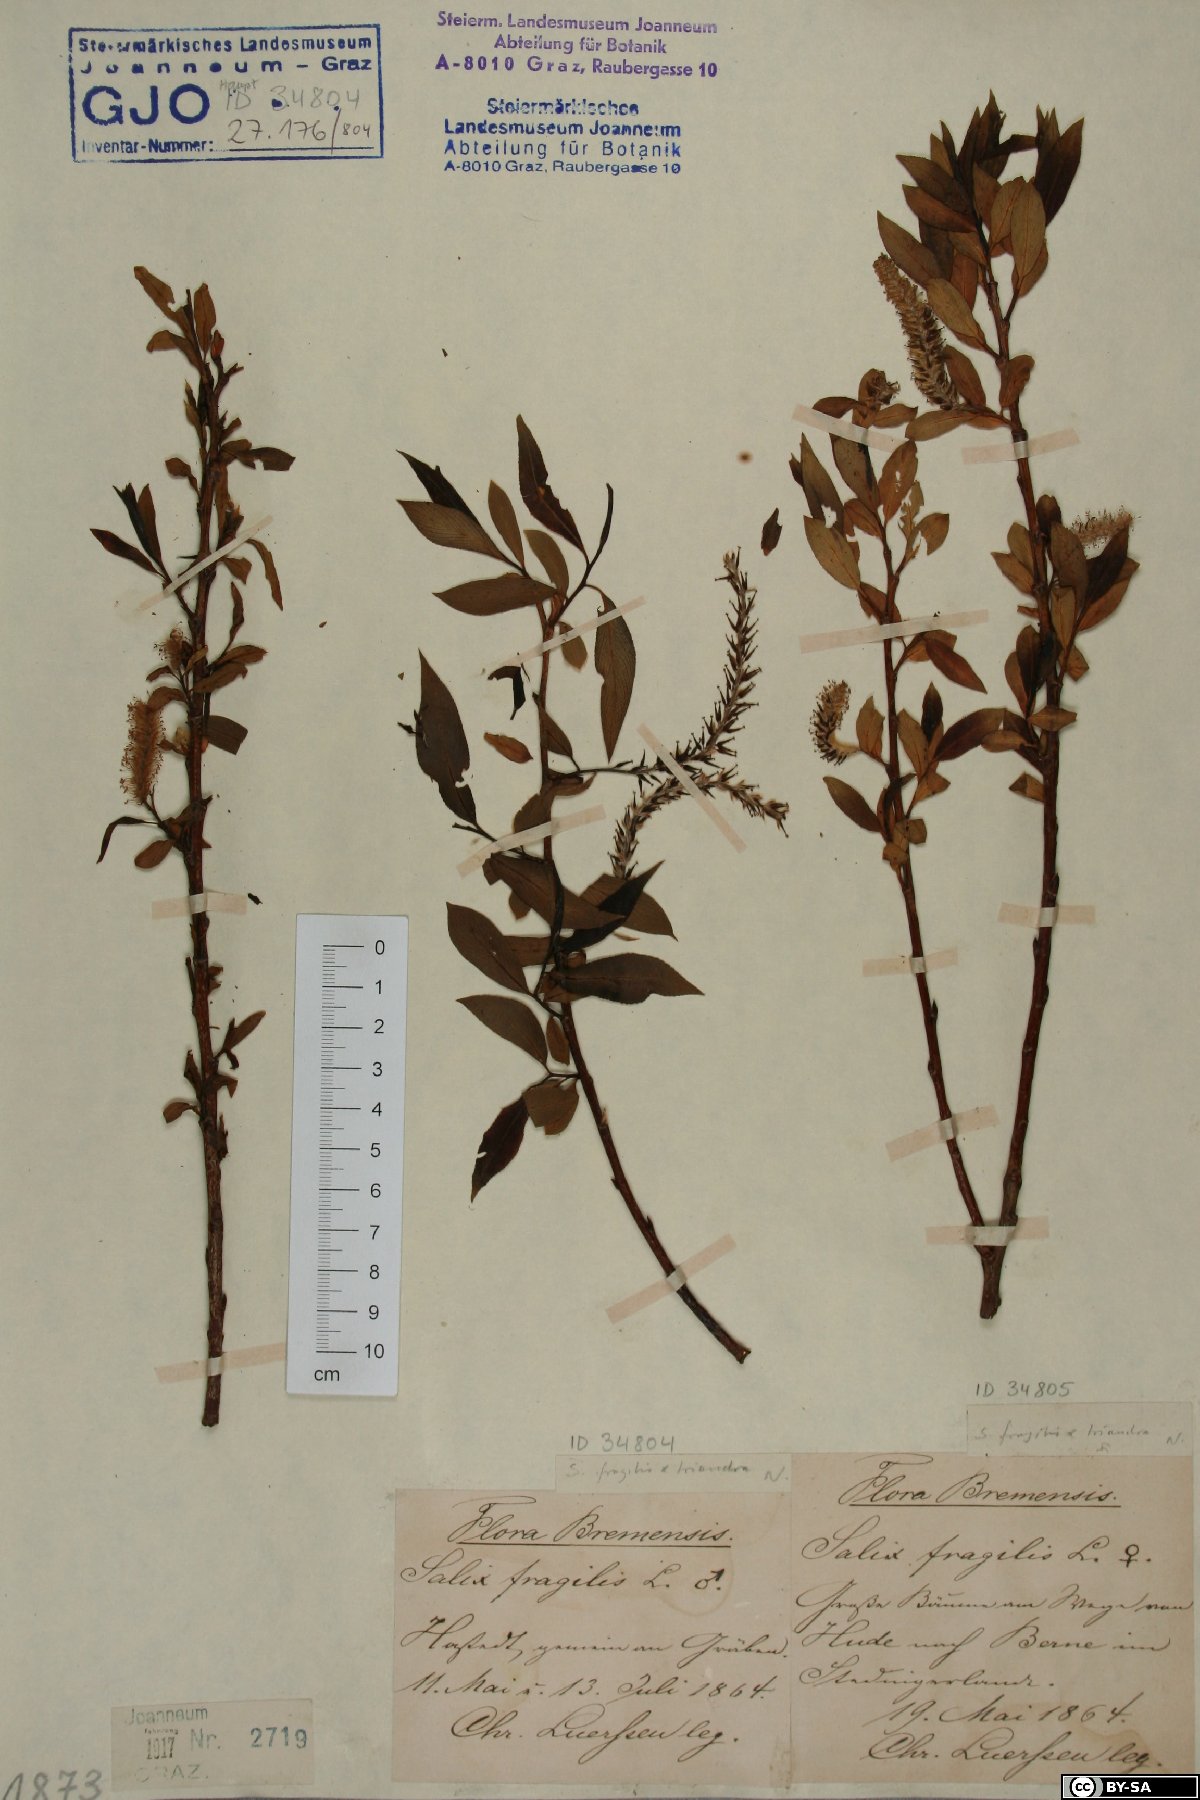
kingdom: Plantae
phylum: Tracheophyta
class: Magnoliopsida
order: Malpighiales
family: Salicaceae
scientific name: Salicaceae
